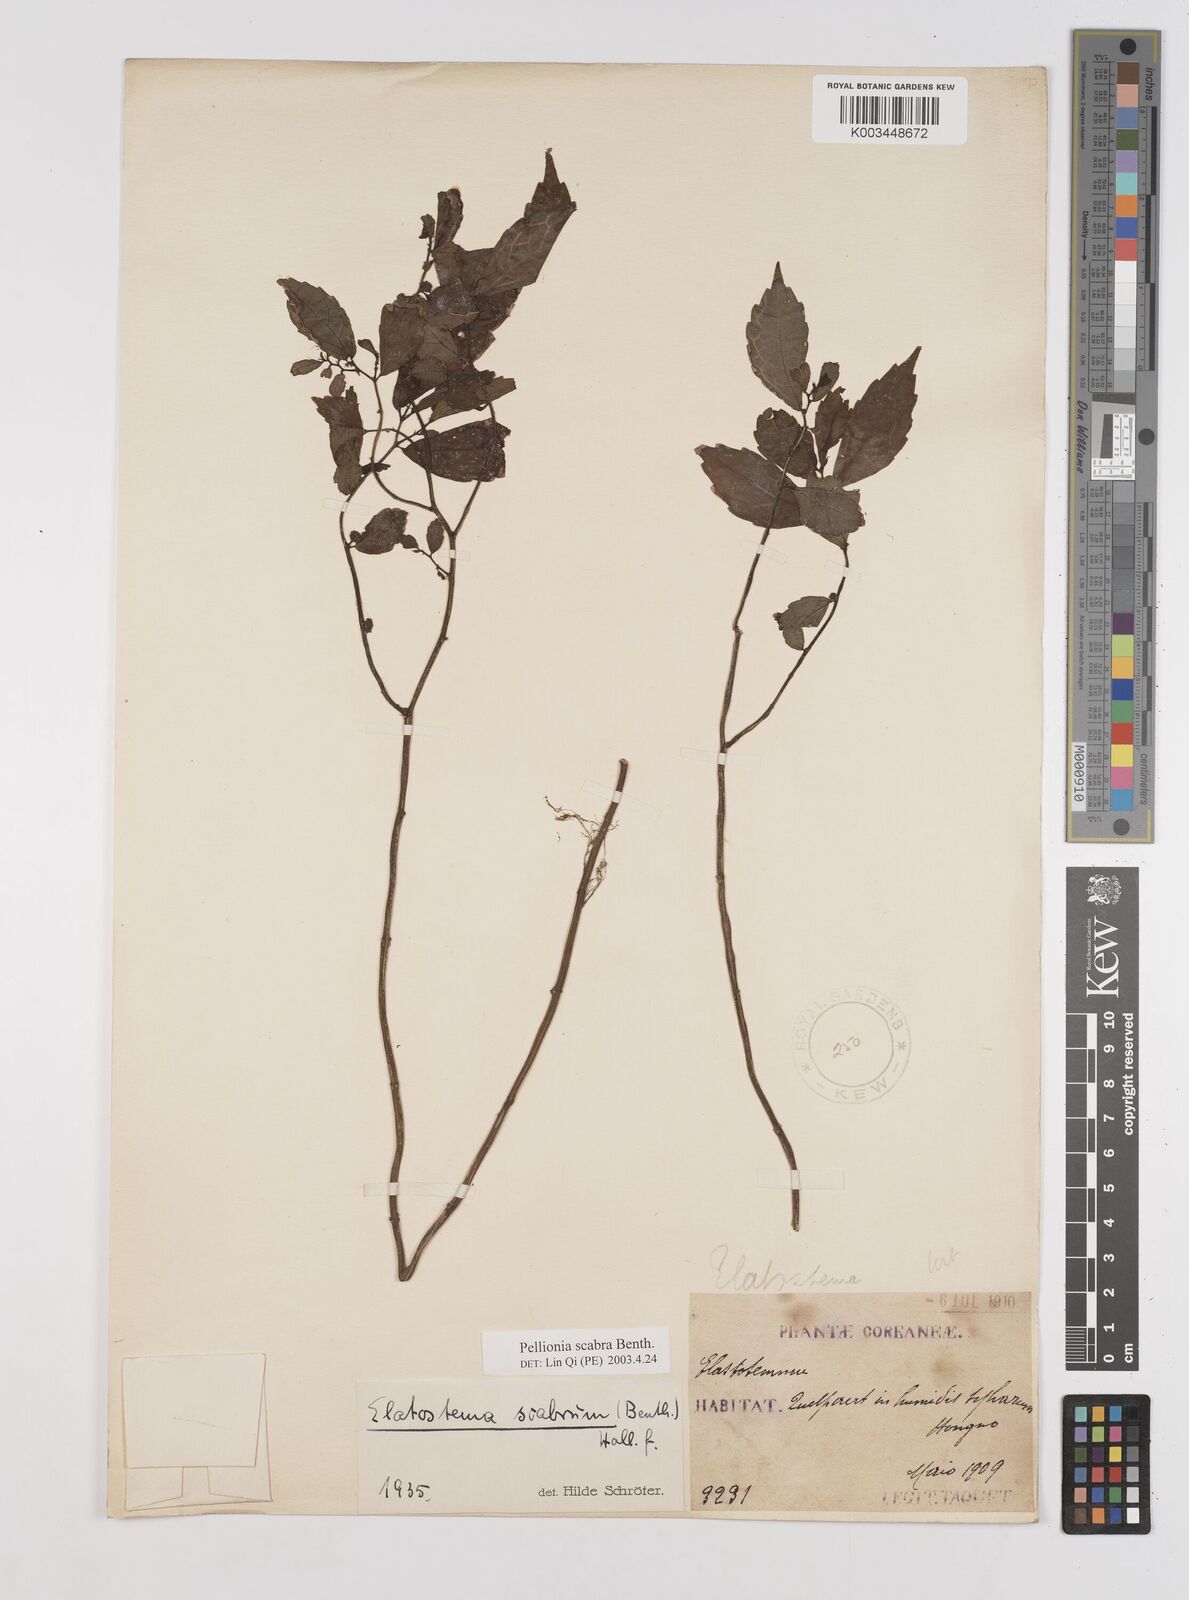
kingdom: Plantae
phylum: Tracheophyta
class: Magnoliopsida
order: Rosales
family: Urticaceae
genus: Elatostema
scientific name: Elatostema scabrum
